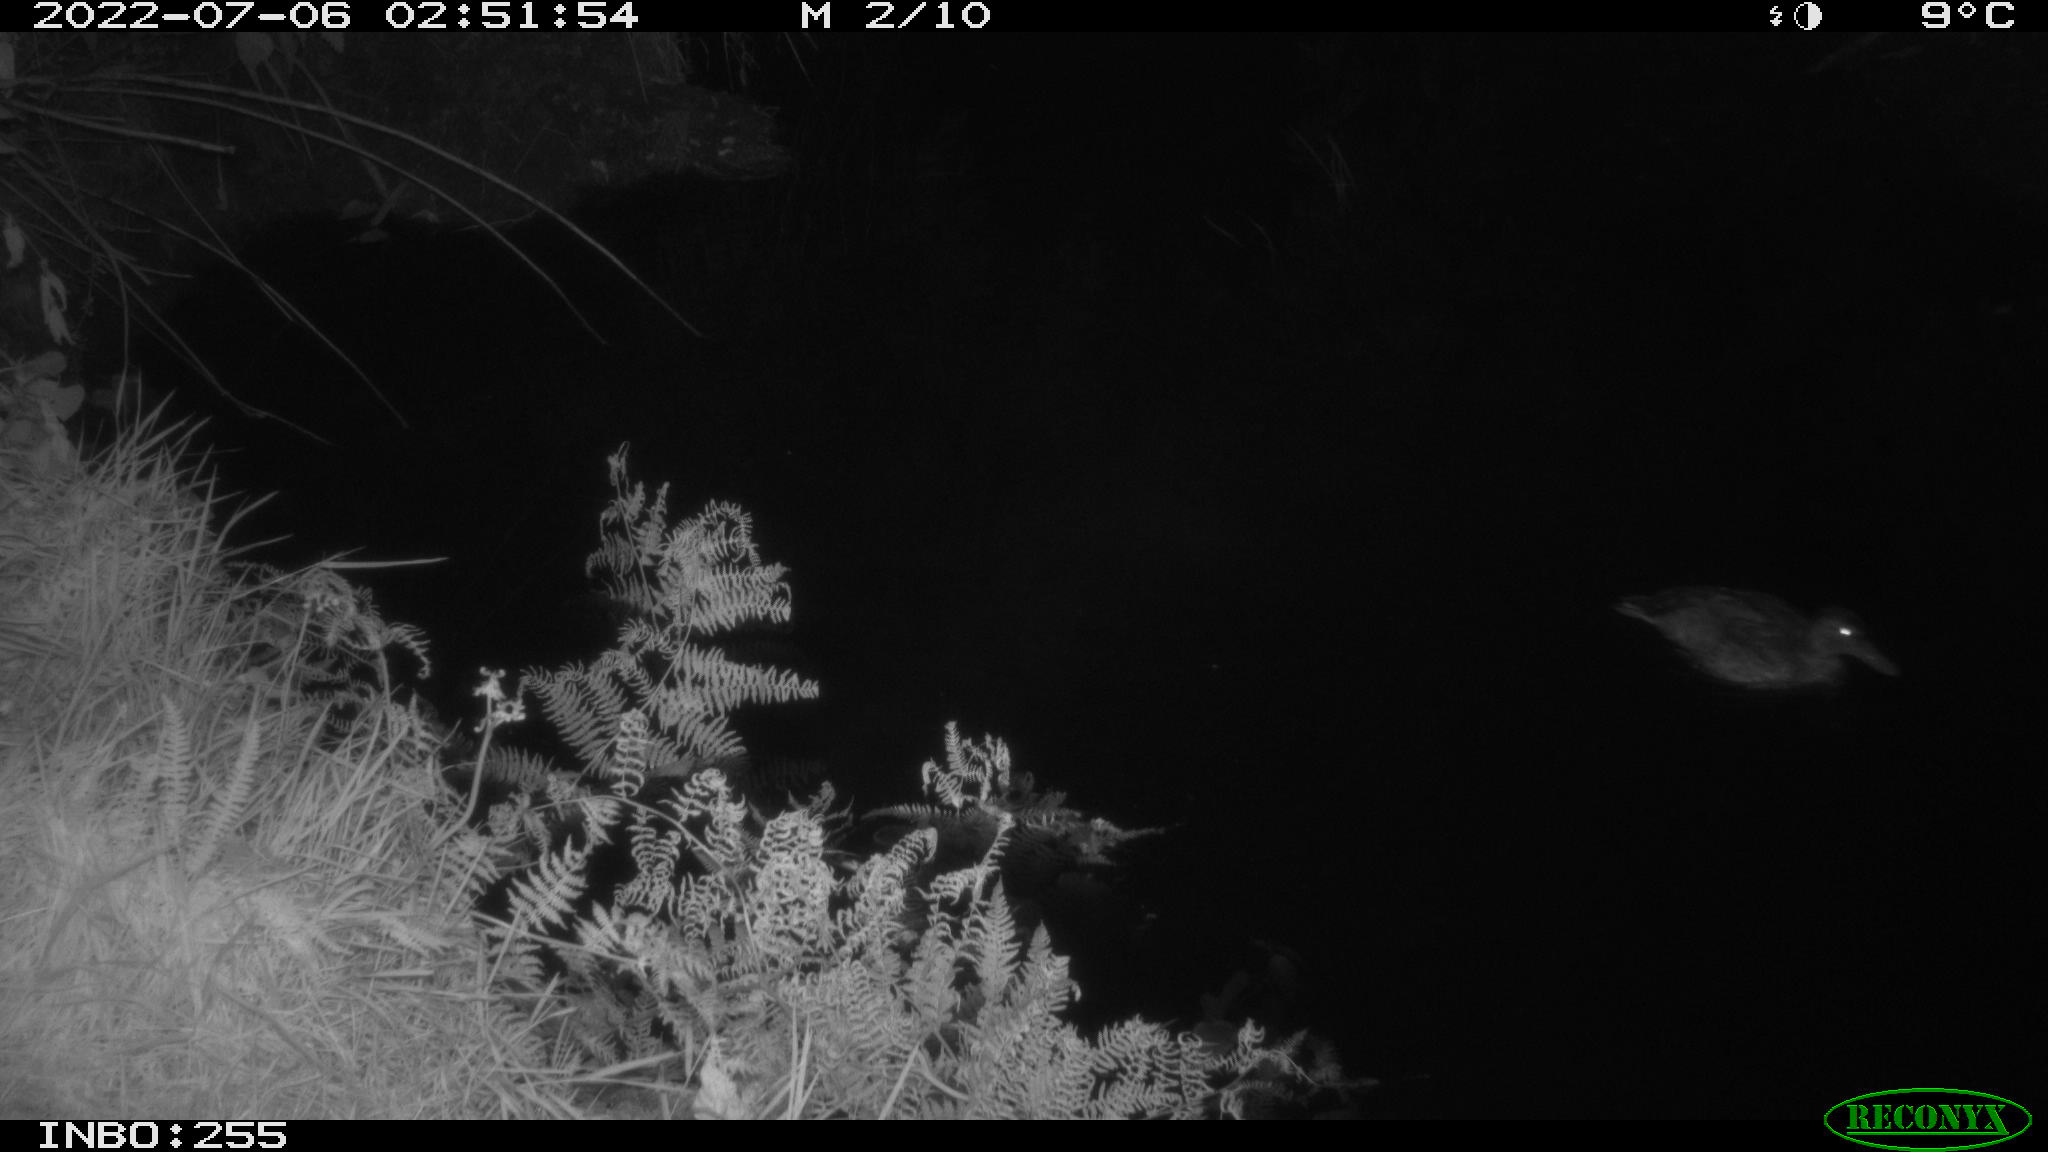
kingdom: Animalia
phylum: Chordata
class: Aves
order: Anseriformes
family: Anatidae
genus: Anas
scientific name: Anas platyrhynchos
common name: Mallard
